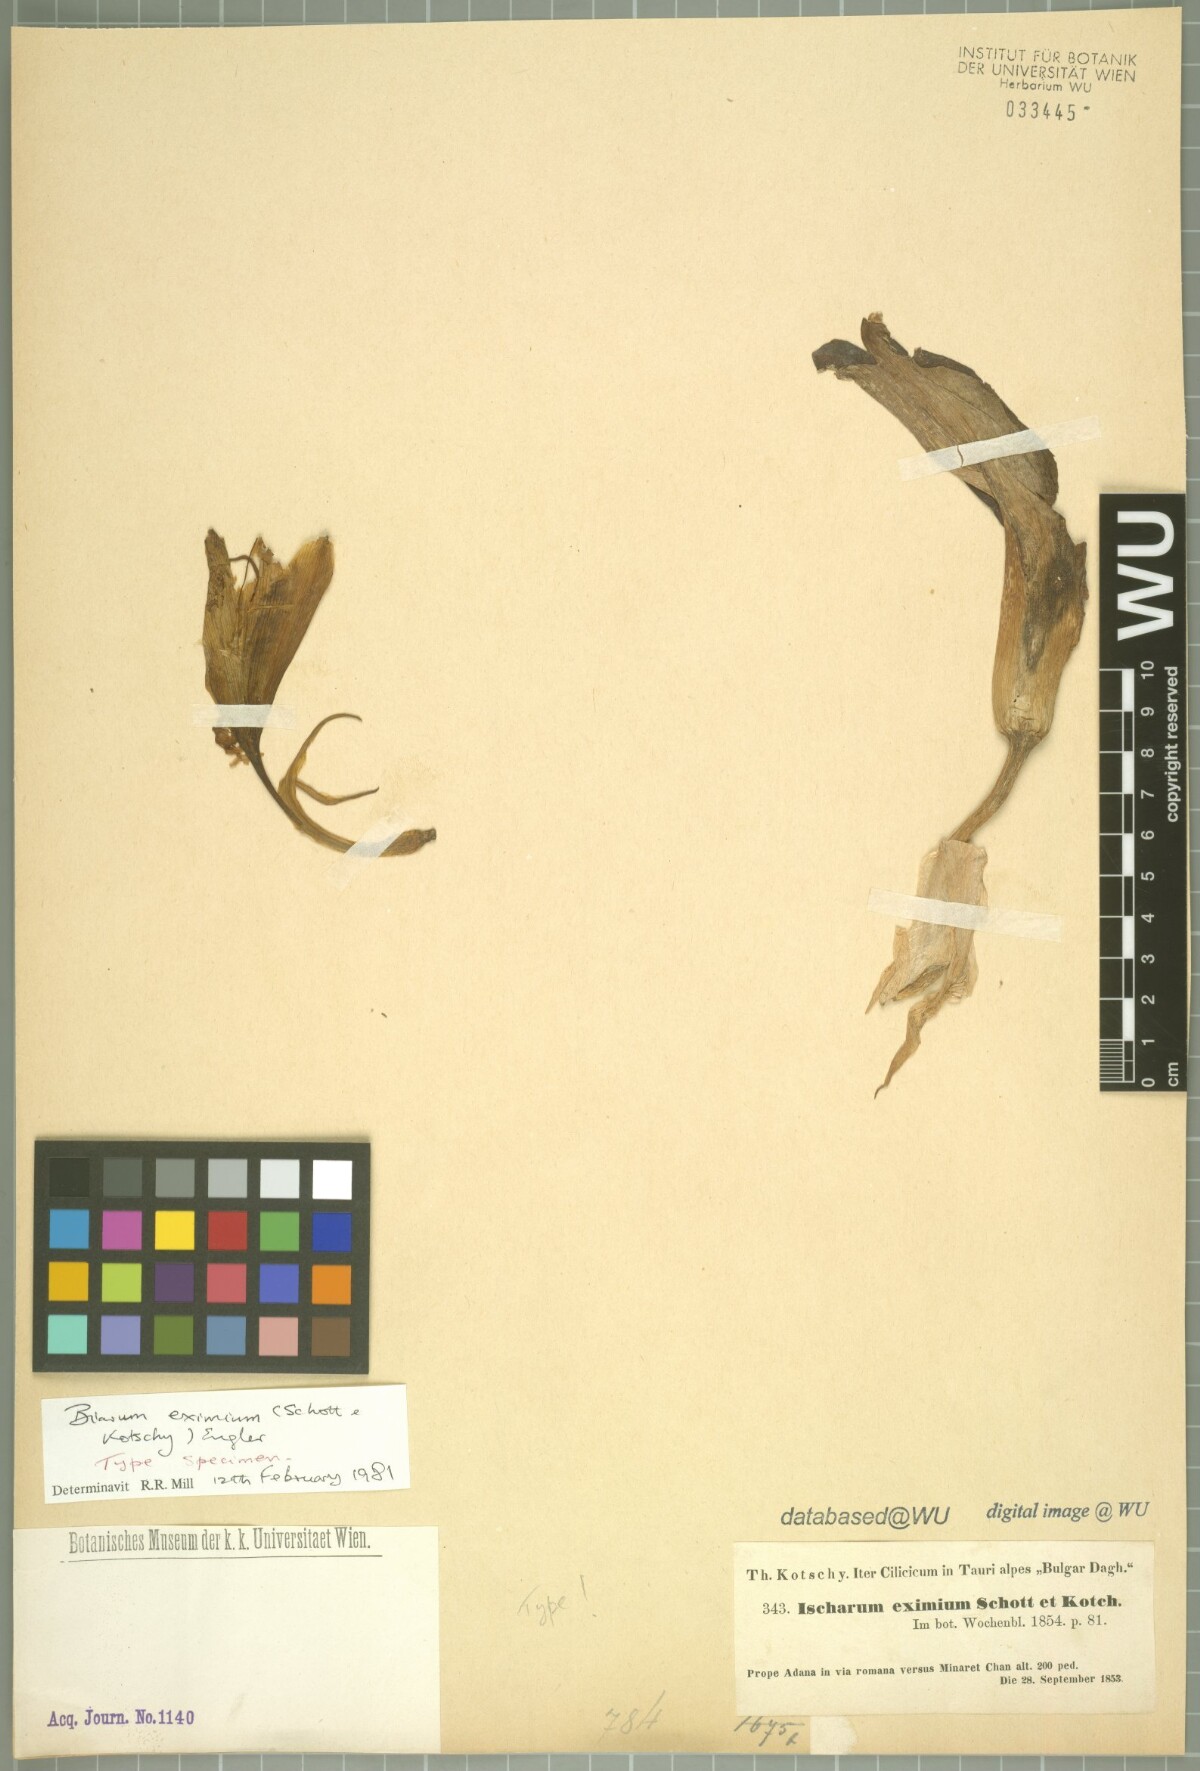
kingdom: Plantae
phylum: Tracheophyta
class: Liliopsida
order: Alismatales
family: Araceae
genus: Biarum
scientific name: Biarum eximium
